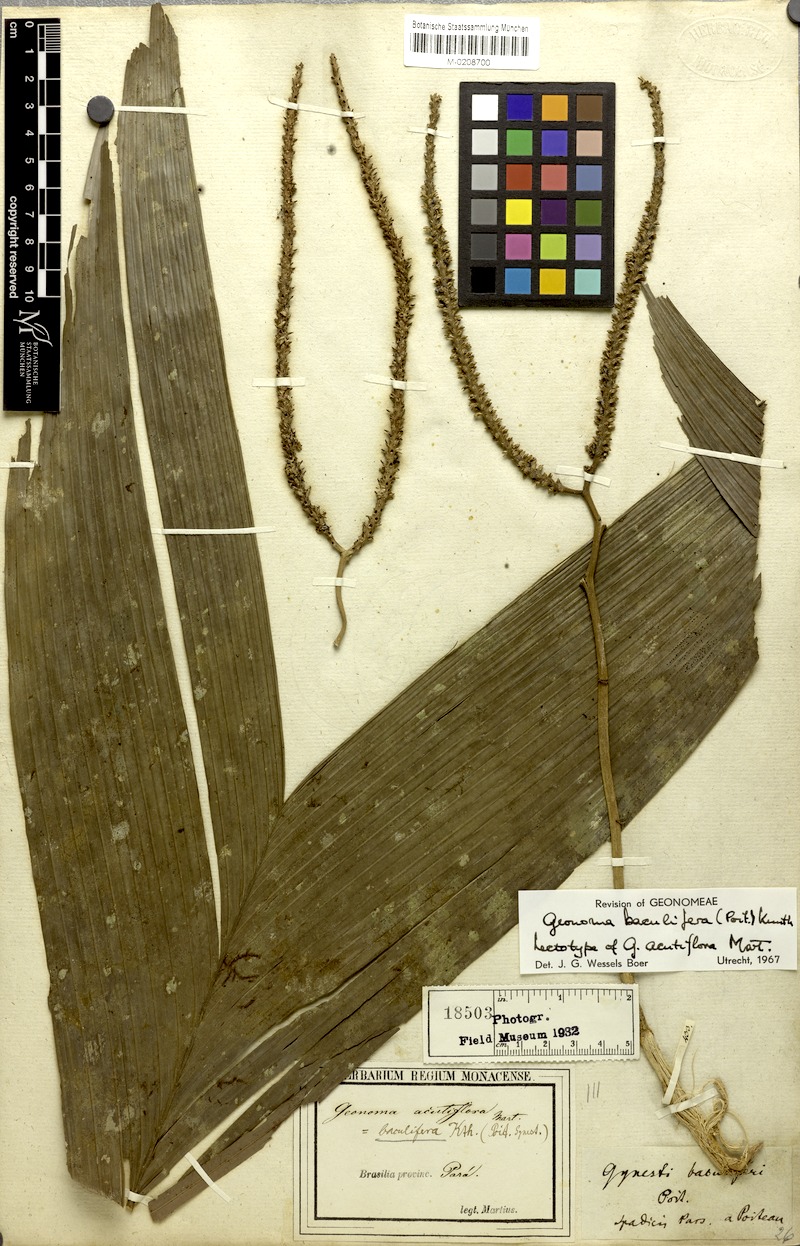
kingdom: Plantae
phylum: Tracheophyta
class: Liliopsida
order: Arecales
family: Arecaceae
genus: Geonoma
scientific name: Geonoma baculifera
